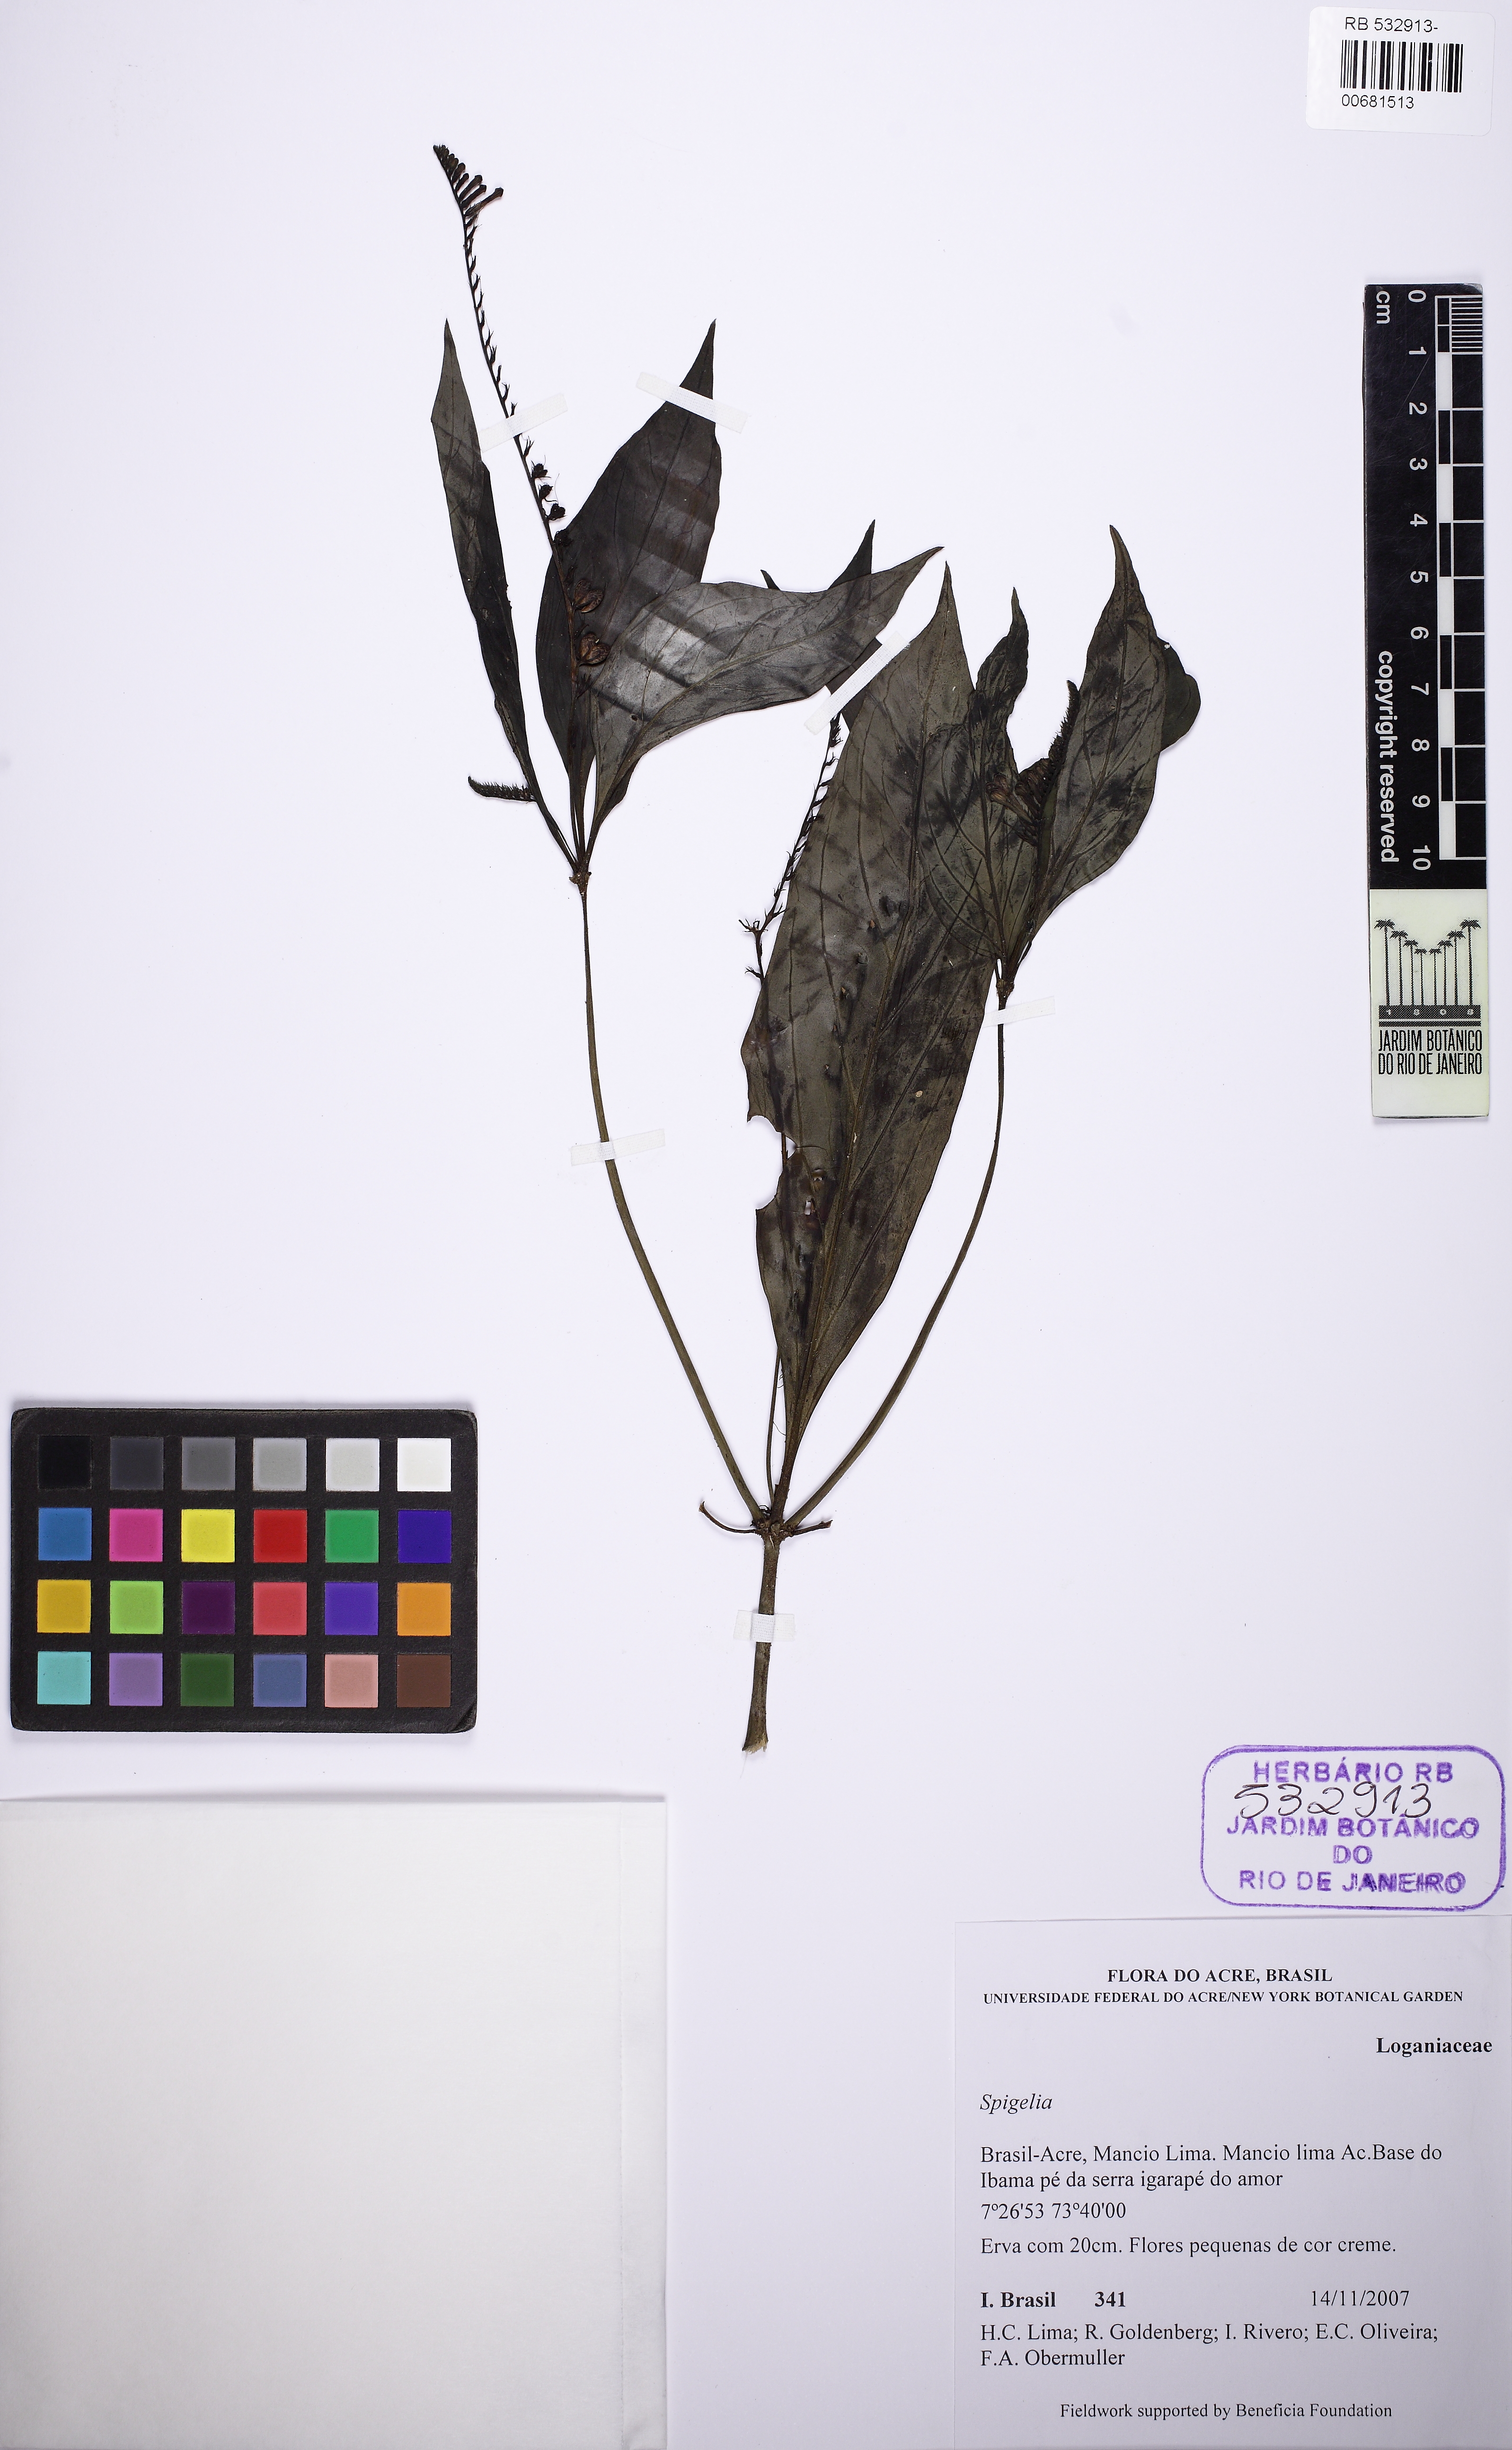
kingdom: Plantae
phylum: Tracheophyta
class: Magnoliopsida
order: Gentianales
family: Loganiaceae
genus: Spigelia
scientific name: Spigelia hamellioides
